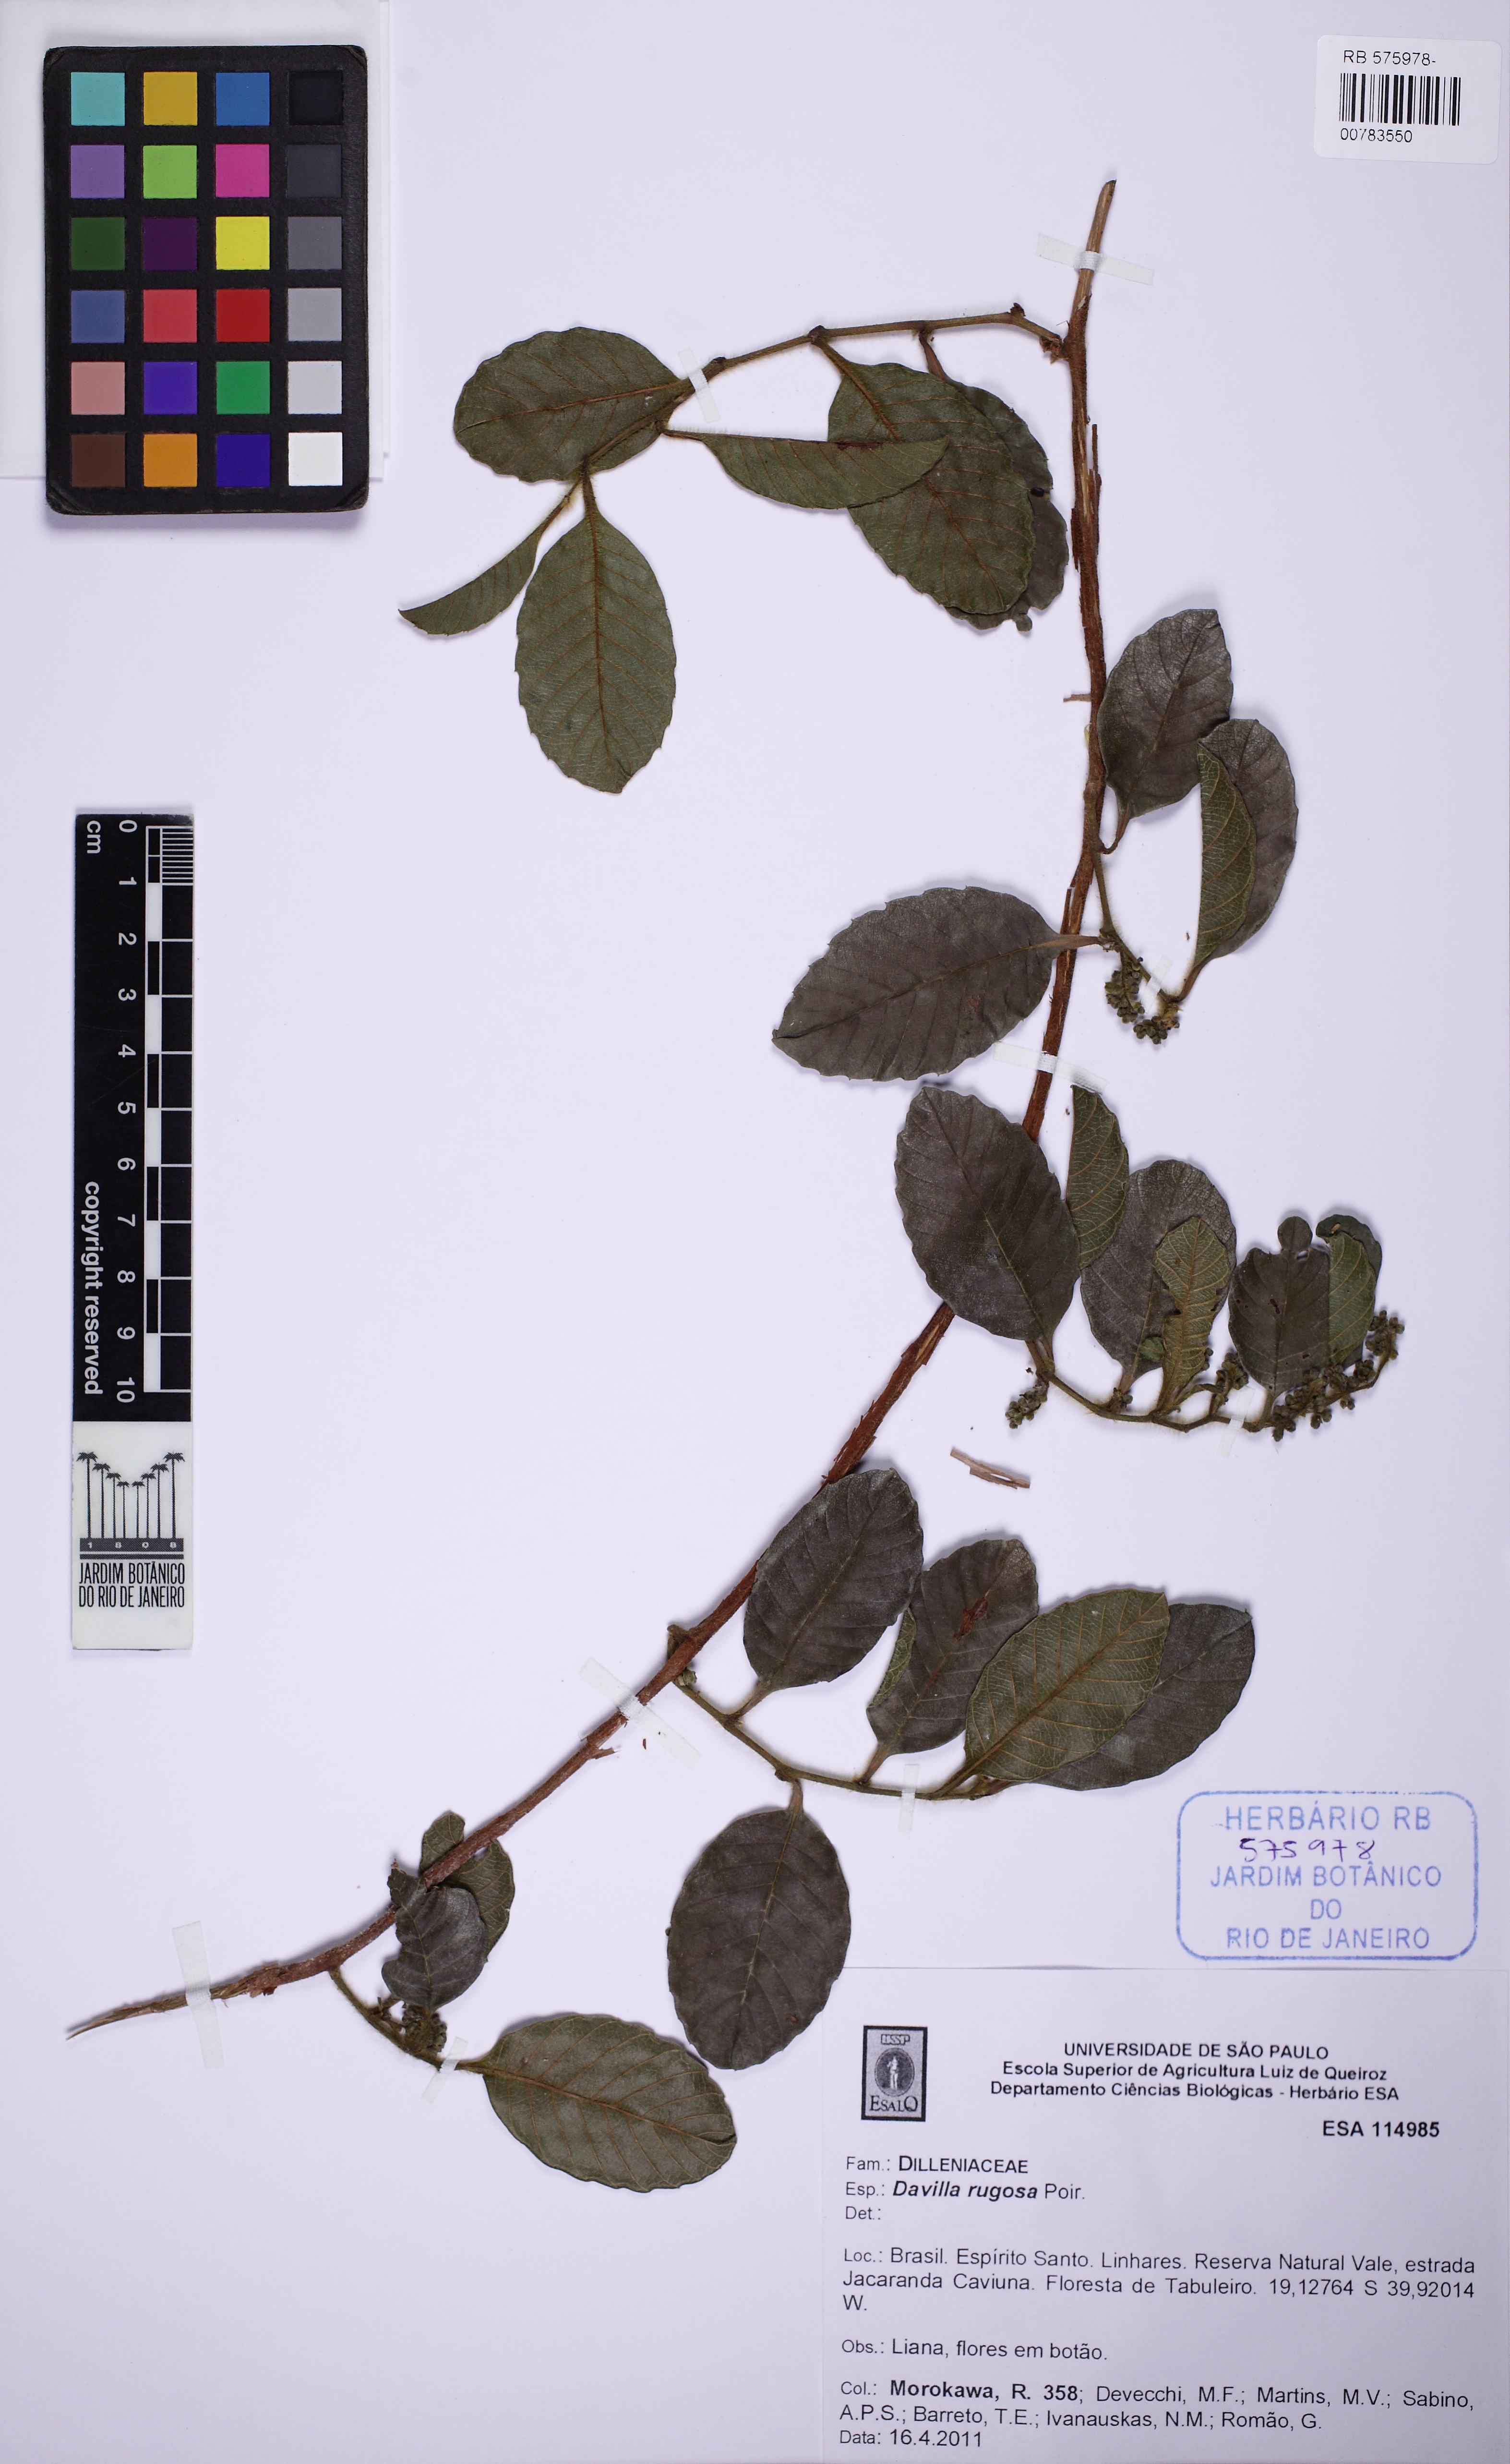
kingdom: Plantae
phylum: Tracheophyta
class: Magnoliopsida
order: Dilleniales
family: Dilleniaceae
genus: Davilla
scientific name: Davilla rugosa
